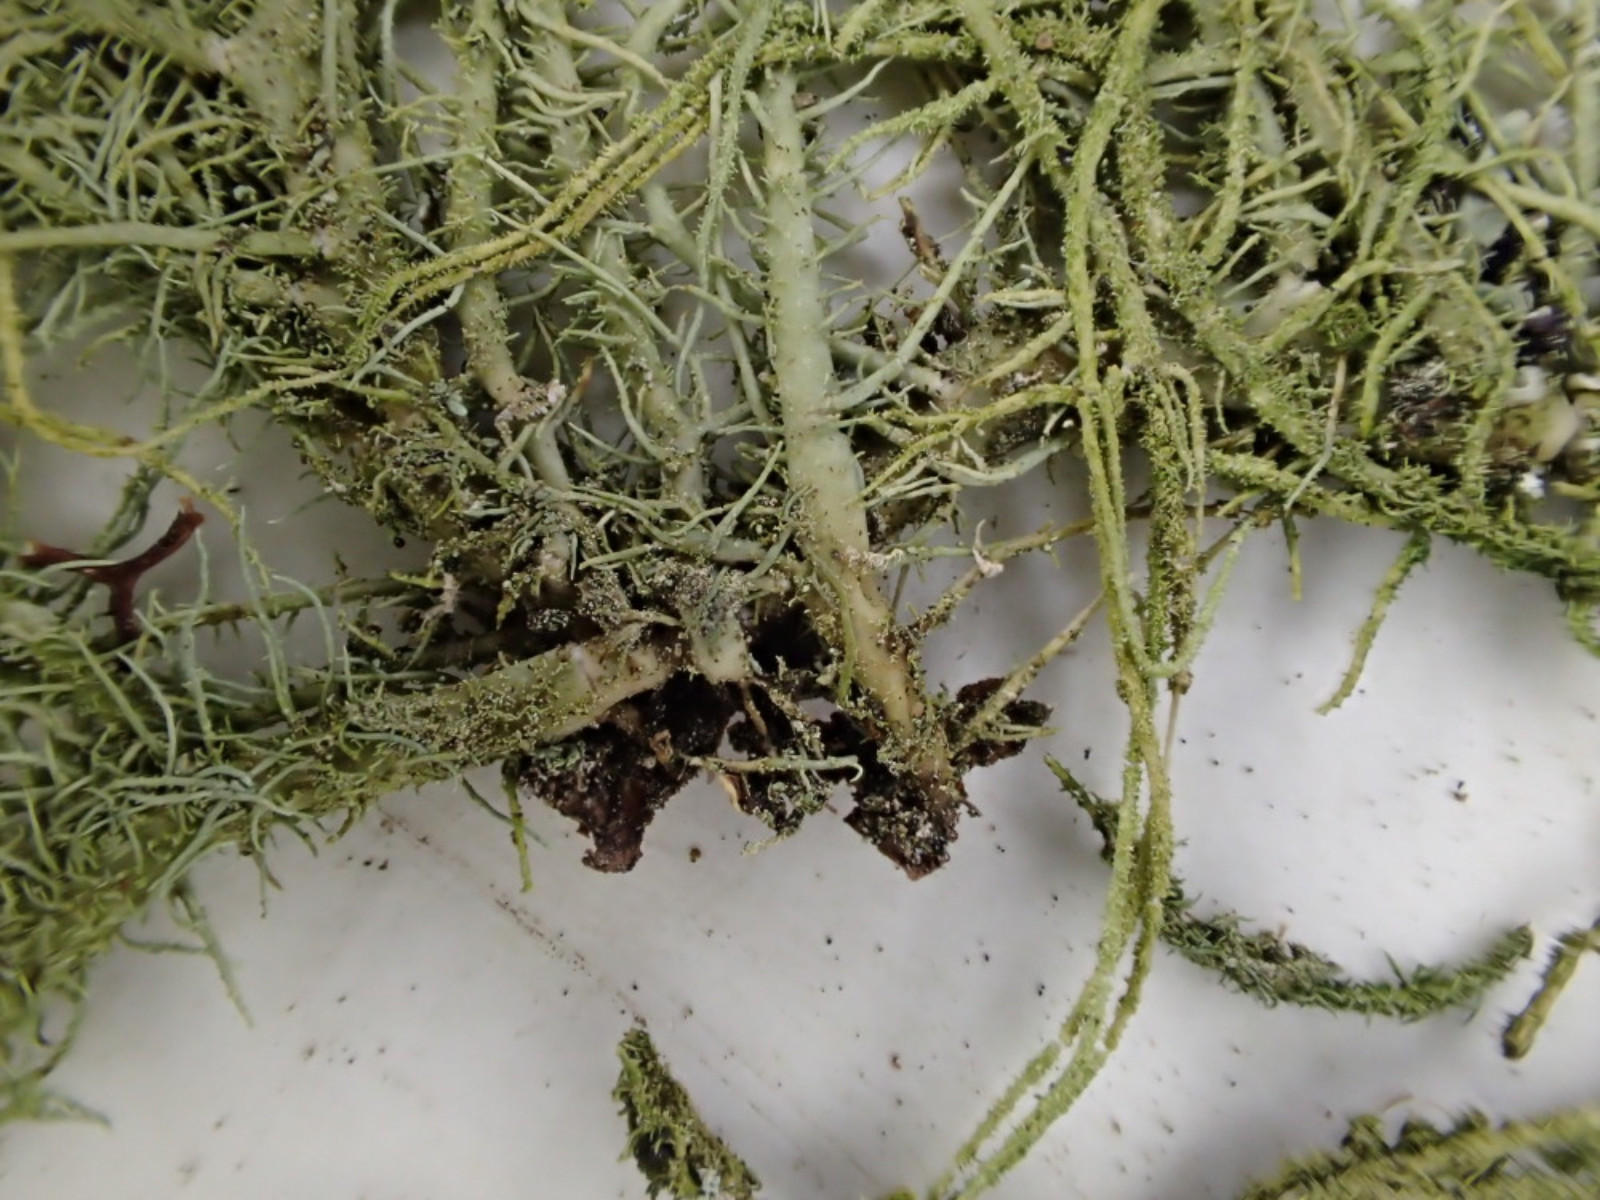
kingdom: Fungi
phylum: Ascomycota
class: Lecanoromycetes
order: Lecanorales
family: Parmeliaceae
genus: Usnea
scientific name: Usnea hirta
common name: liden skæglav
